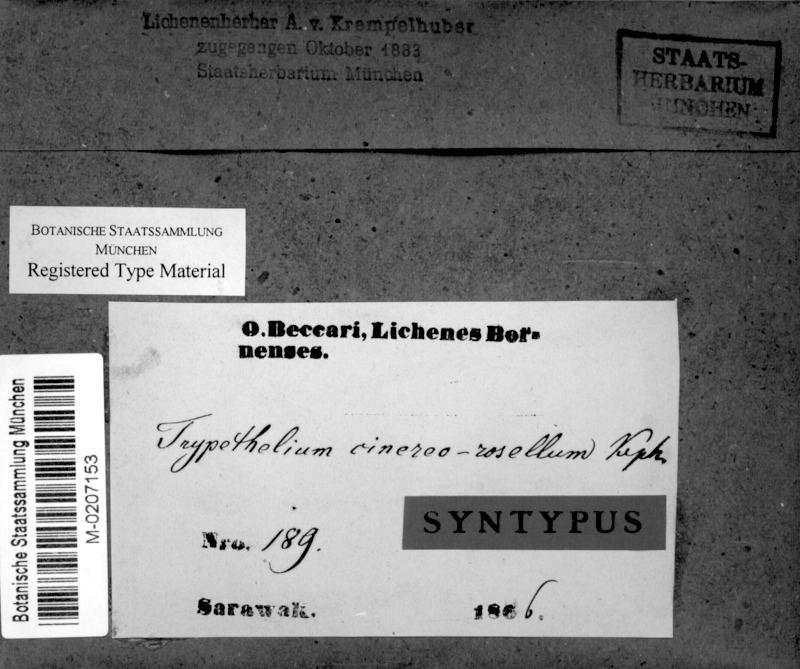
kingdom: Fungi
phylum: Ascomycota
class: Dothideomycetes
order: Trypetheliales
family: Trypetheliaceae
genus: Astrothelium
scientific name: Astrothelium cinereorosellum
